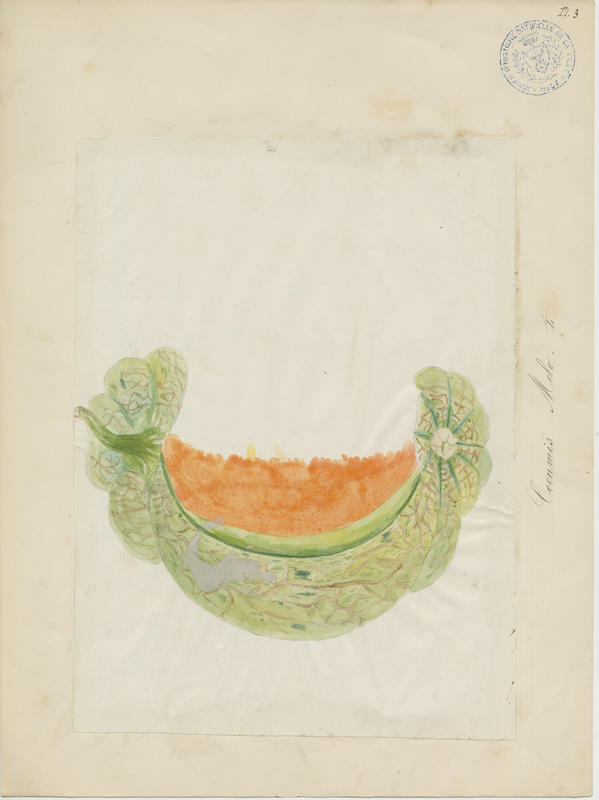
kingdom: Plantae
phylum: Tracheophyta
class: Magnoliopsida
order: Cucurbitales
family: Cucurbitaceae
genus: Cucumis
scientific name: Cucumis melo
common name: Melon
